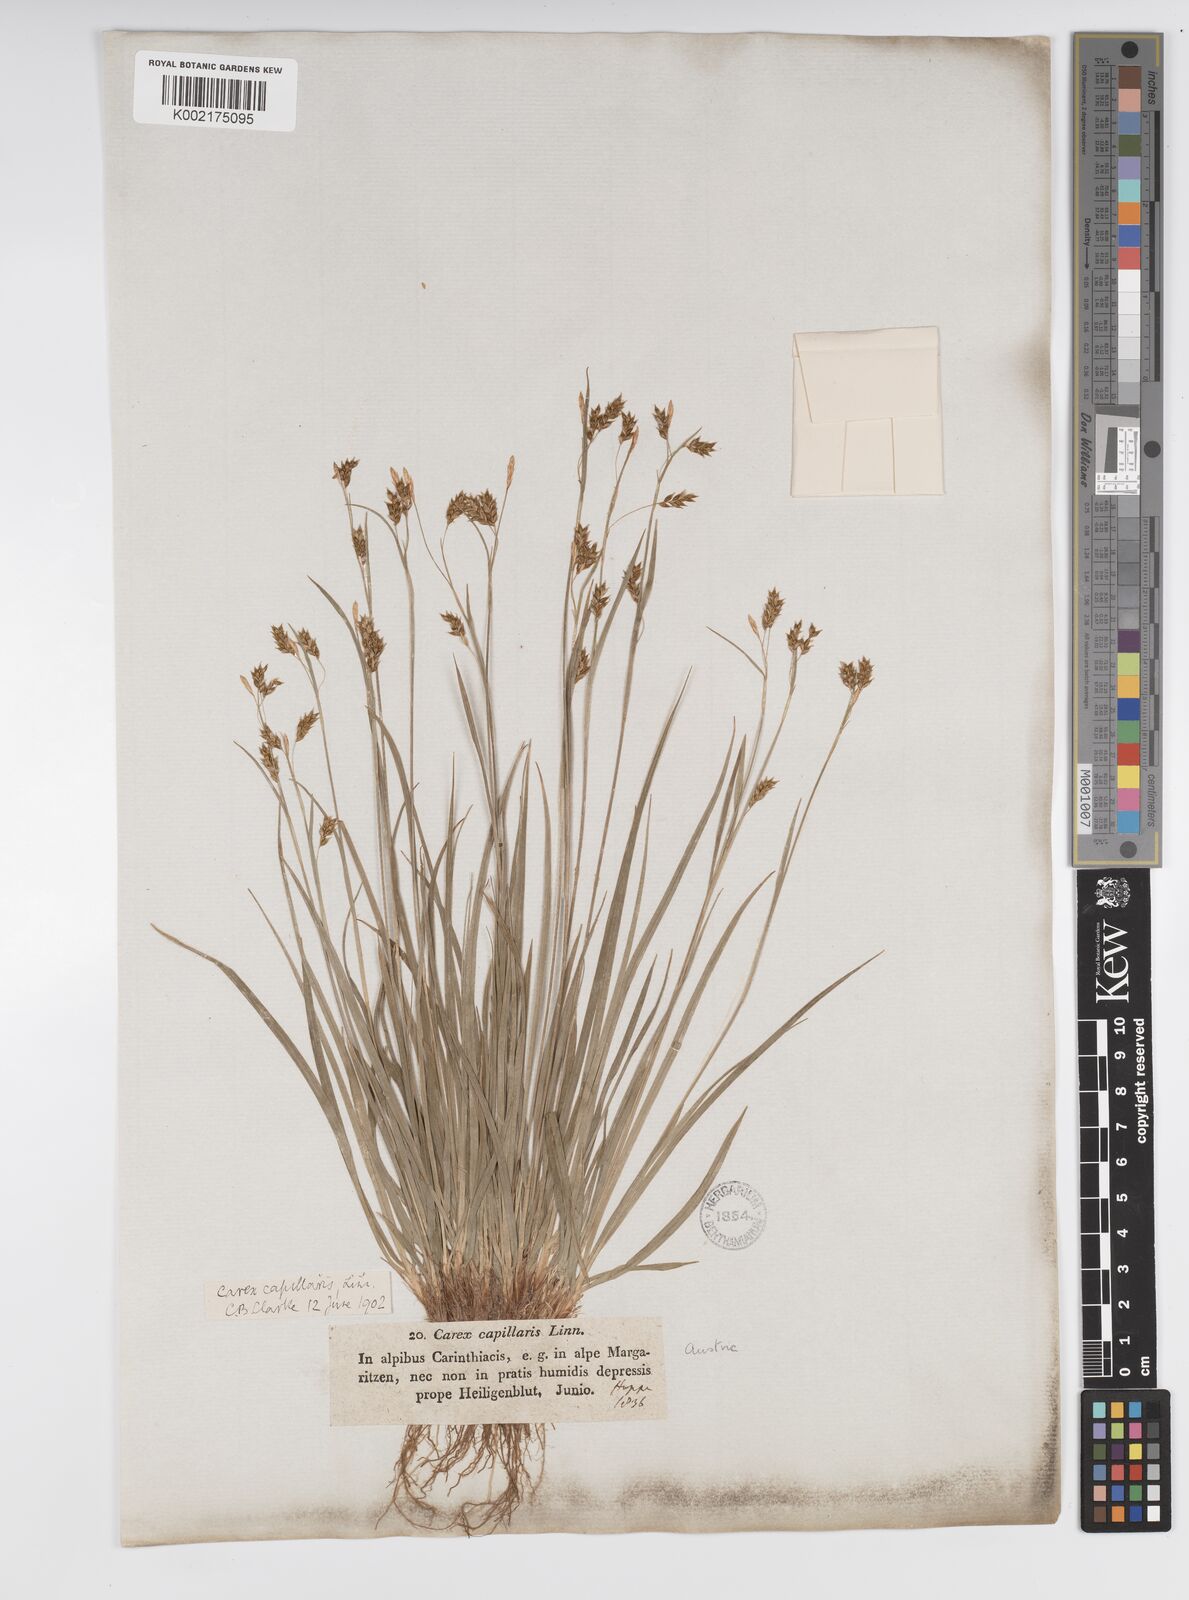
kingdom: Plantae
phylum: Tracheophyta
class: Liliopsida
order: Poales
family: Cyperaceae
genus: Carex
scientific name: Carex capillaris
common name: Hair sedge
